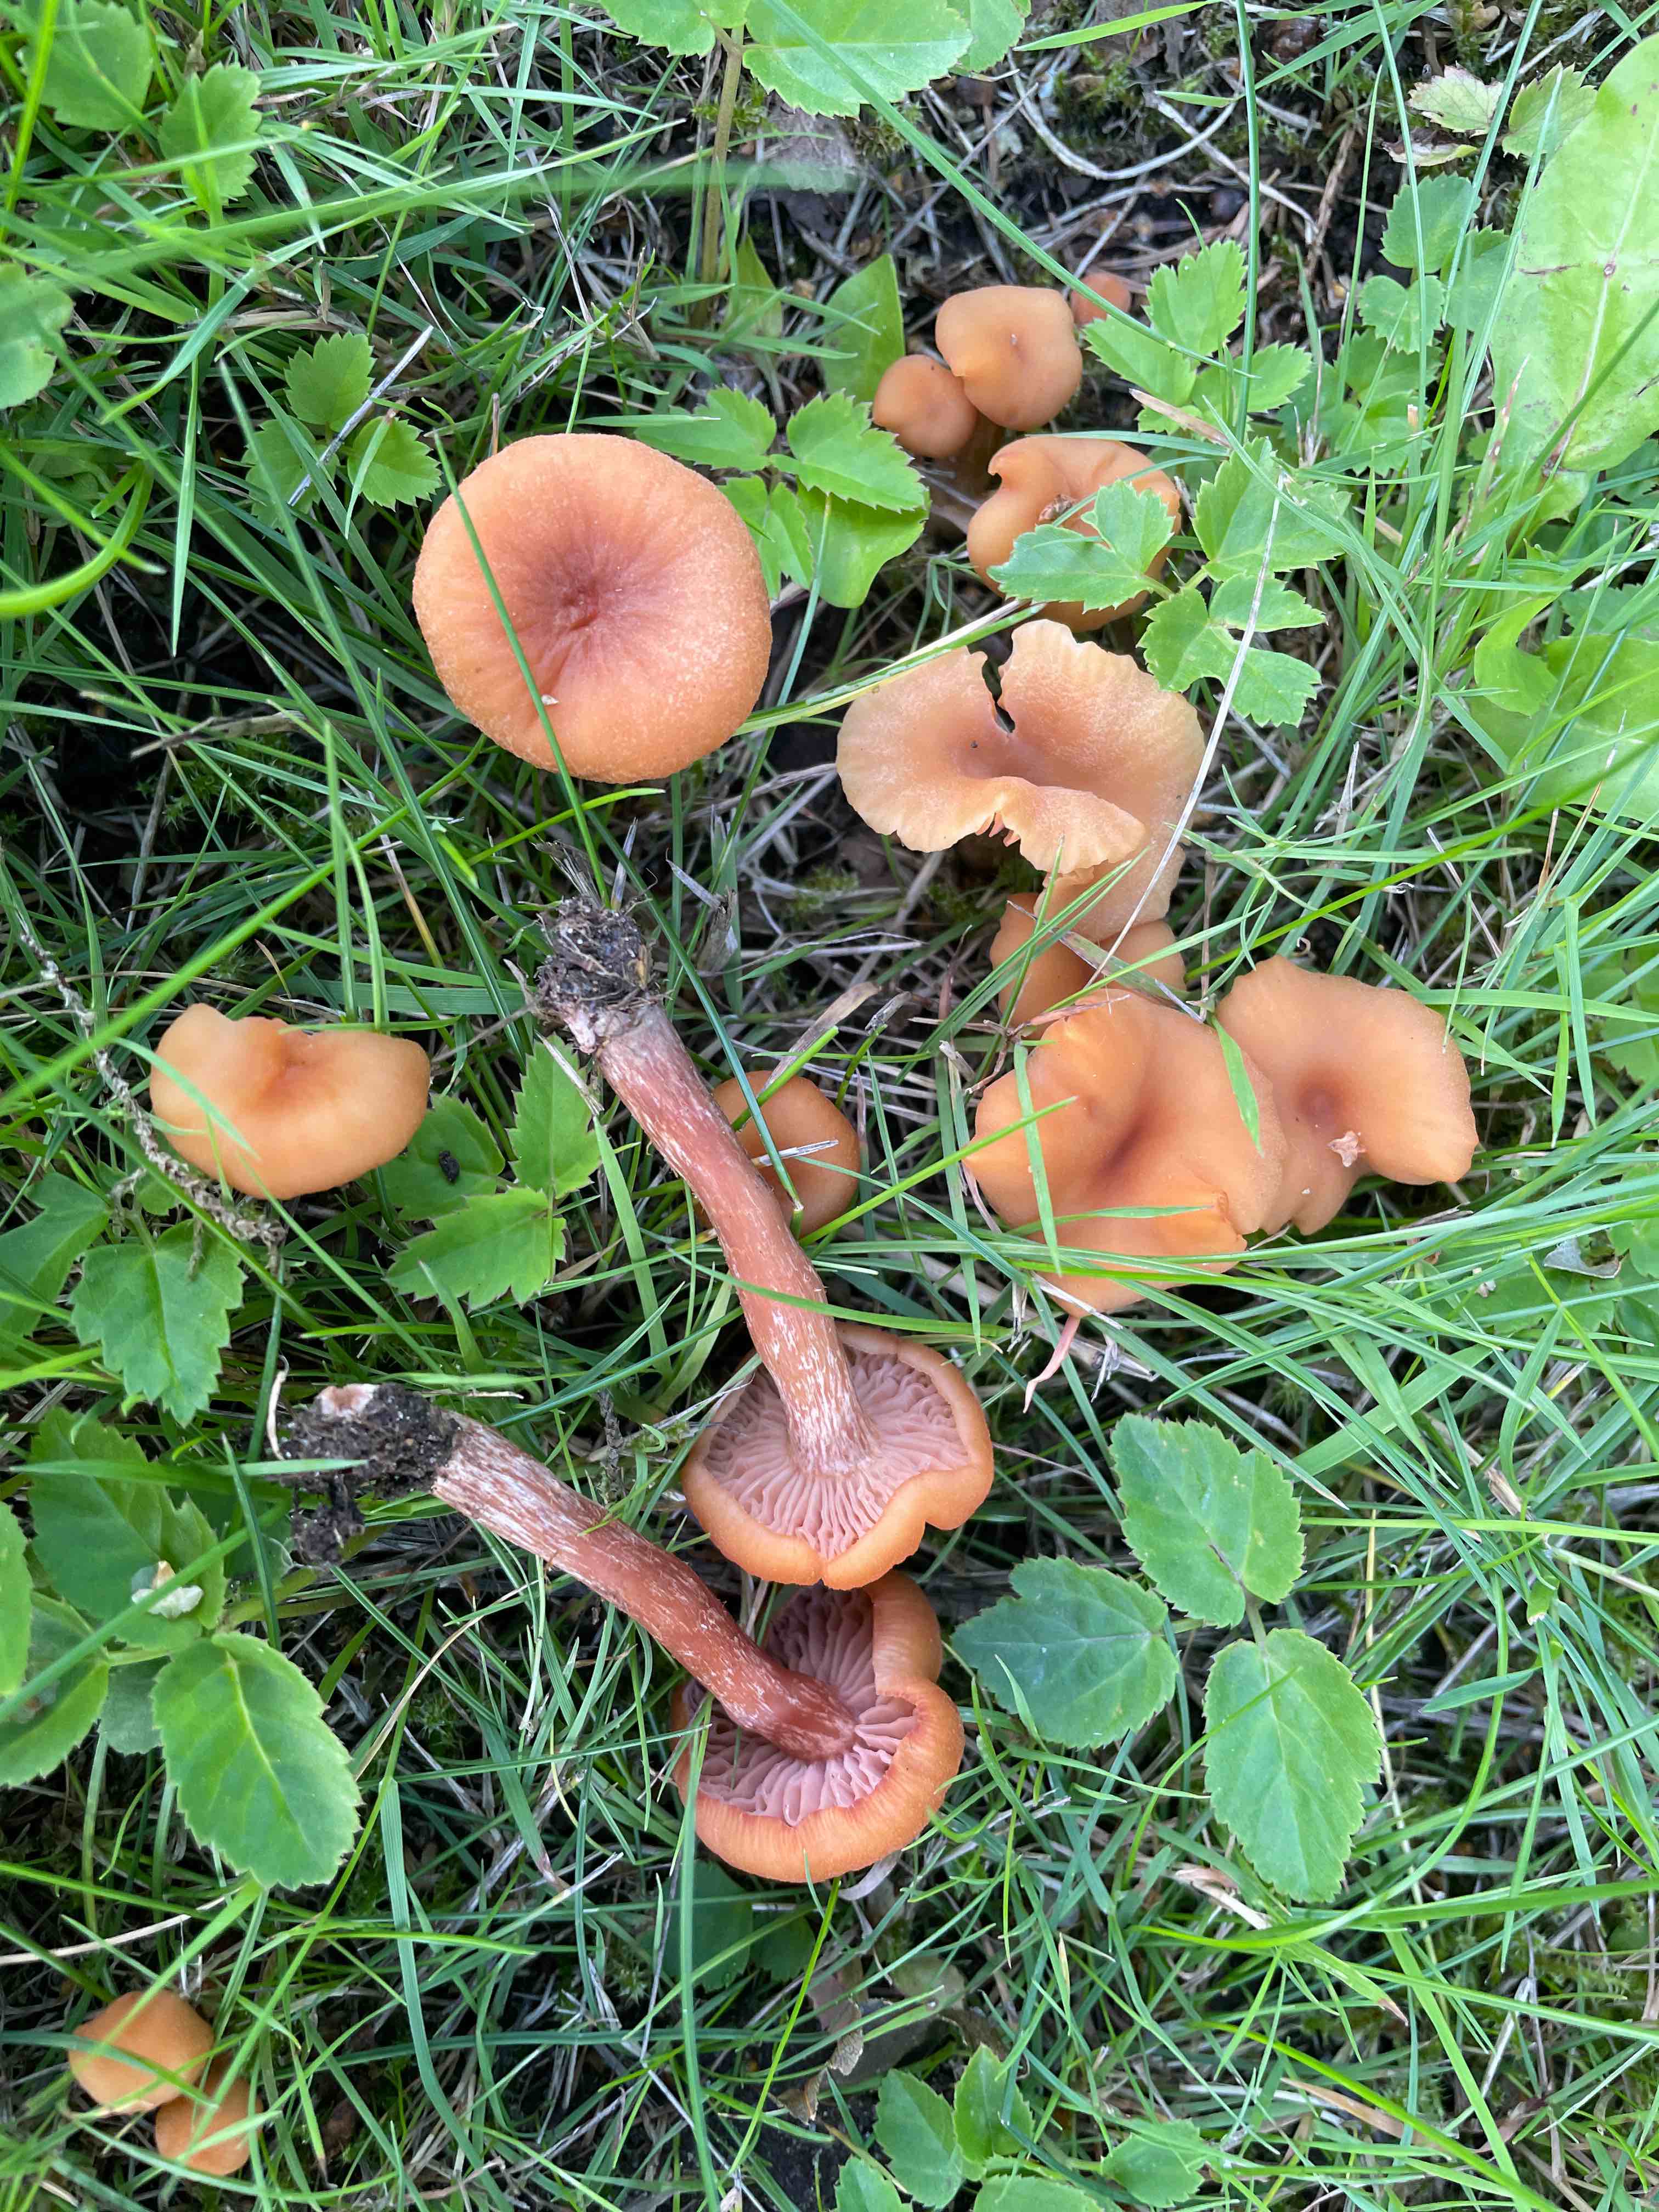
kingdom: Fungi
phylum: Basidiomycota
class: Agaricomycetes
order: Agaricales
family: Hydnangiaceae
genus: Laccaria
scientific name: Laccaria laccata
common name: rød ametysthat
